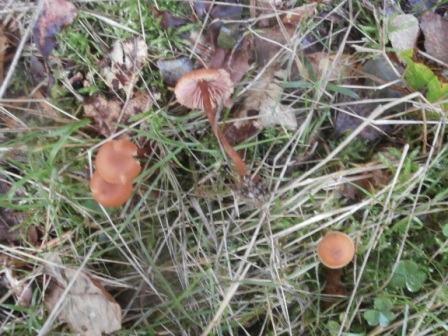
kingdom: Fungi
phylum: Basidiomycota
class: Agaricomycetes
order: Agaricales
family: Hydnangiaceae
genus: Laccaria
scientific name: Laccaria laccata
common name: rød ametysthat
